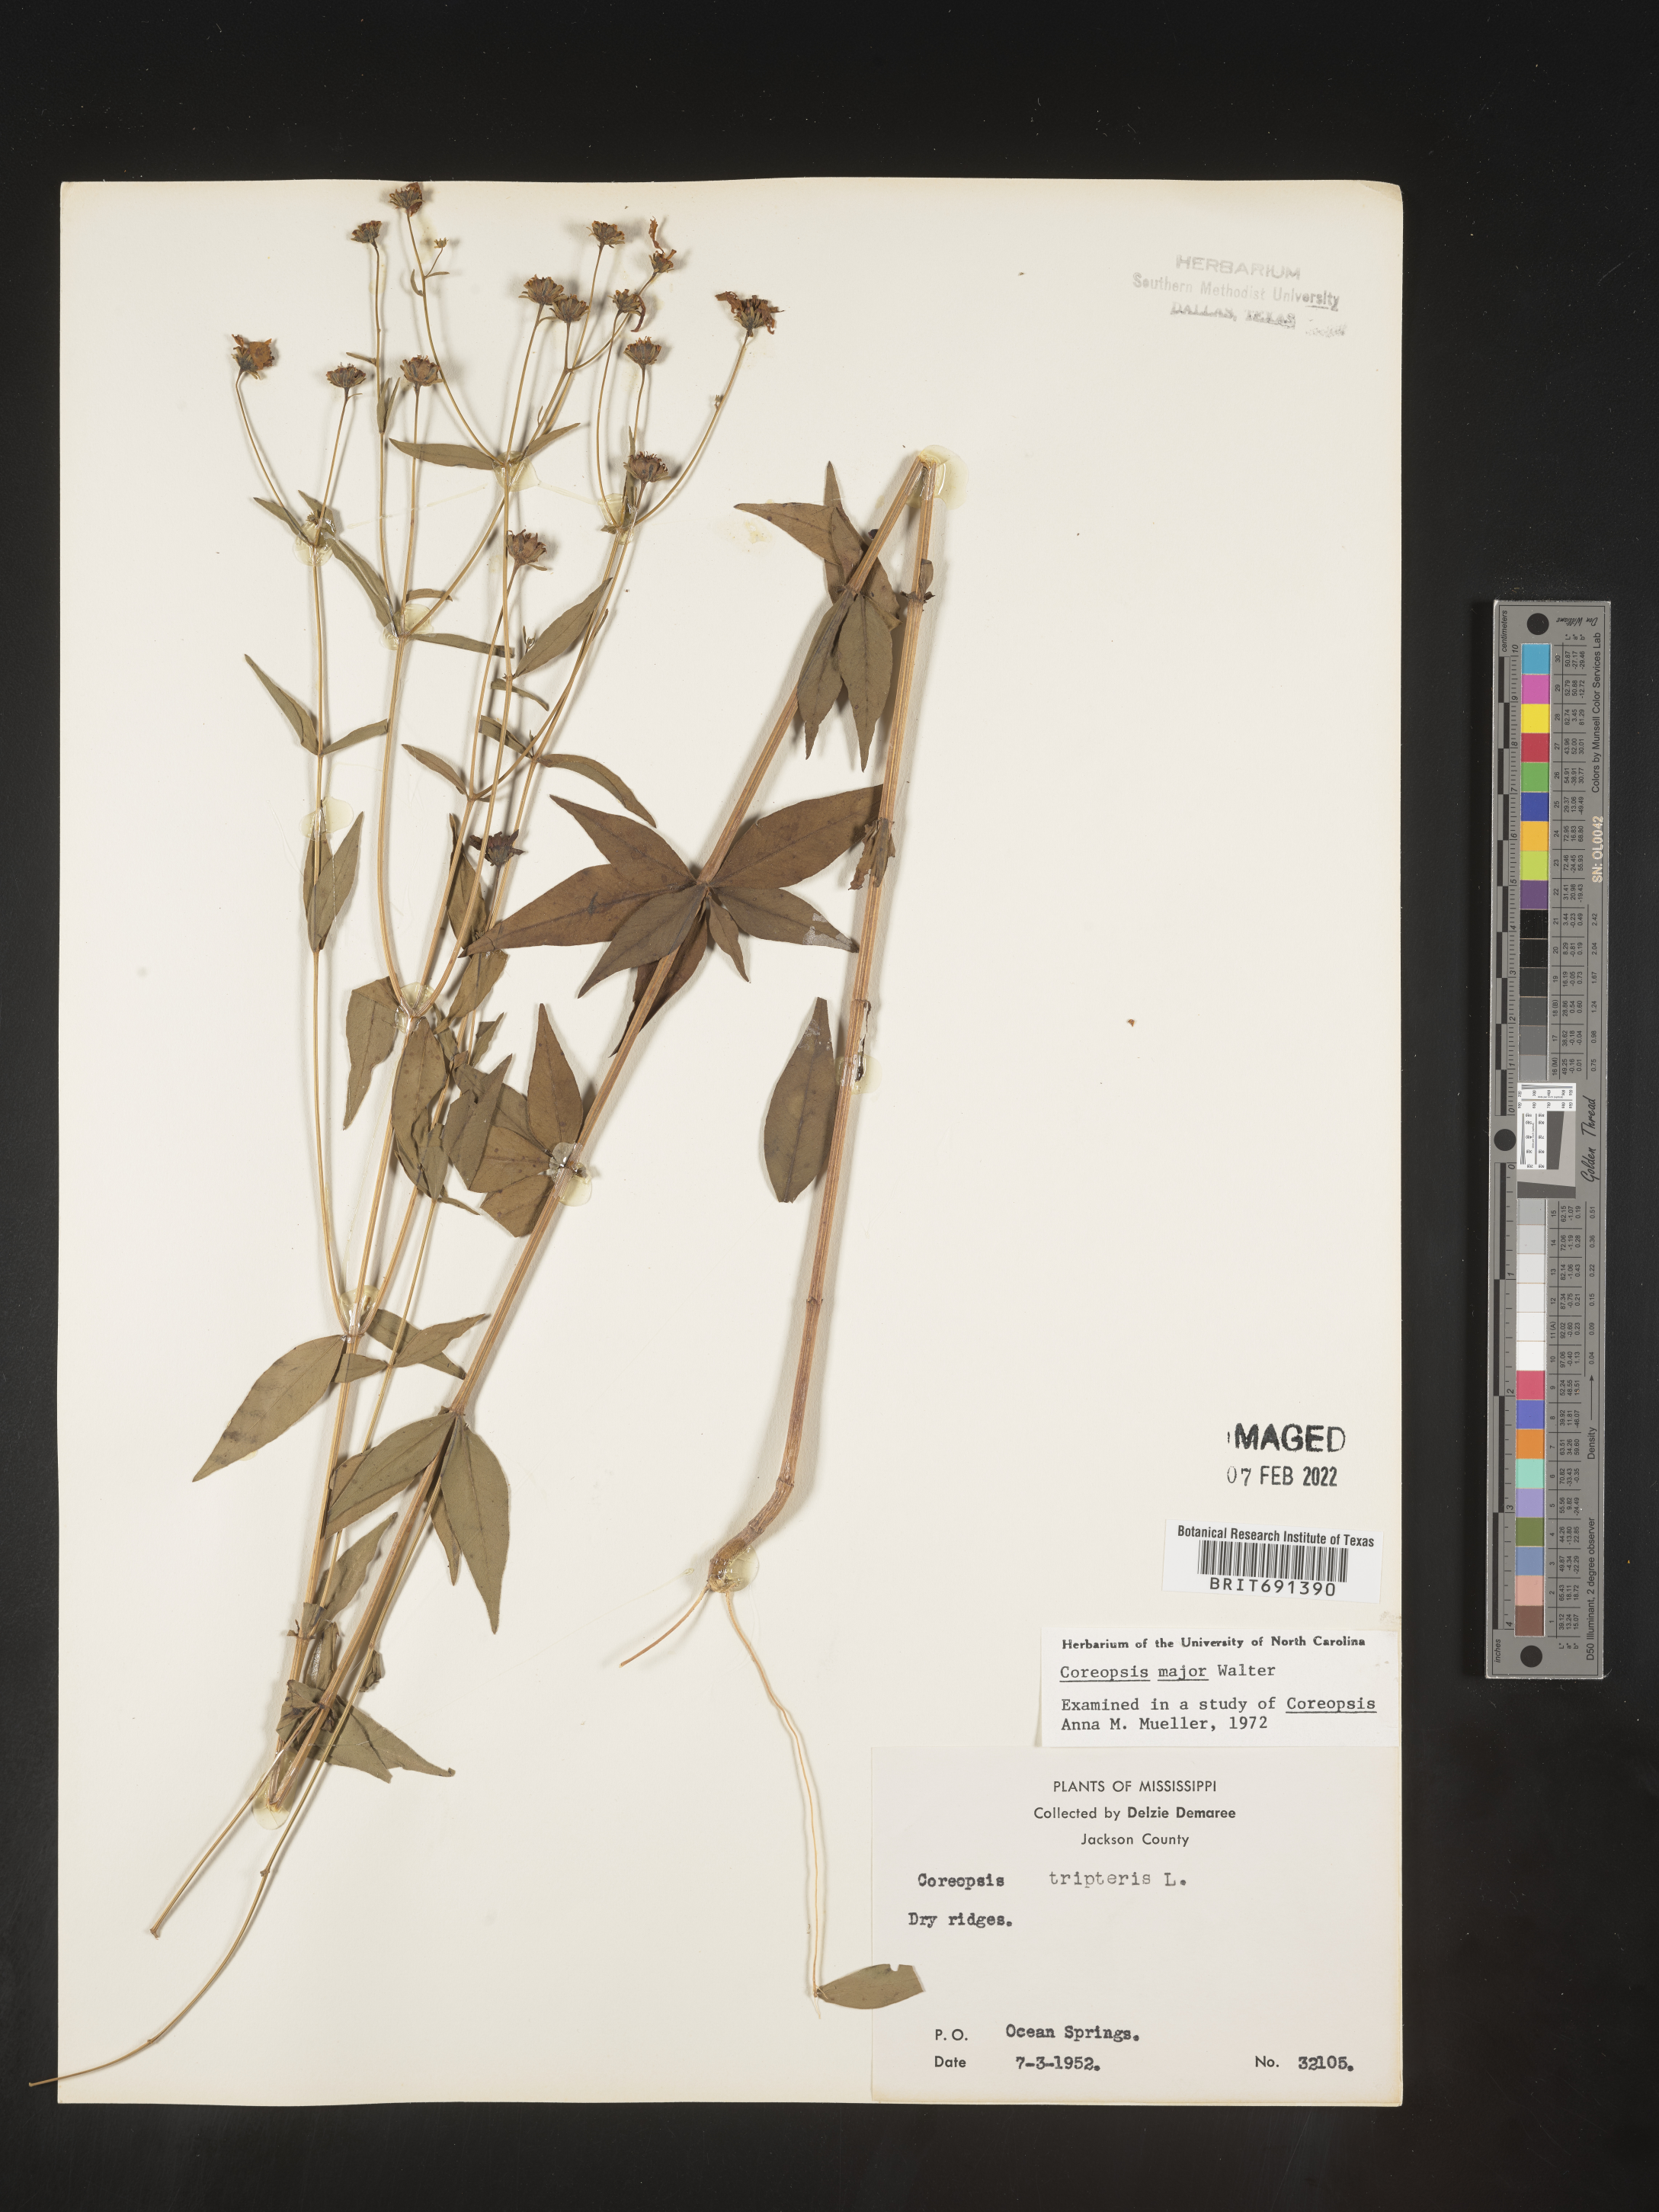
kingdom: Plantae
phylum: Tracheophyta
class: Magnoliopsida
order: Asterales
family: Asteraceae
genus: Coreopsis
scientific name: Coreopsis major
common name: Forest tickseed
